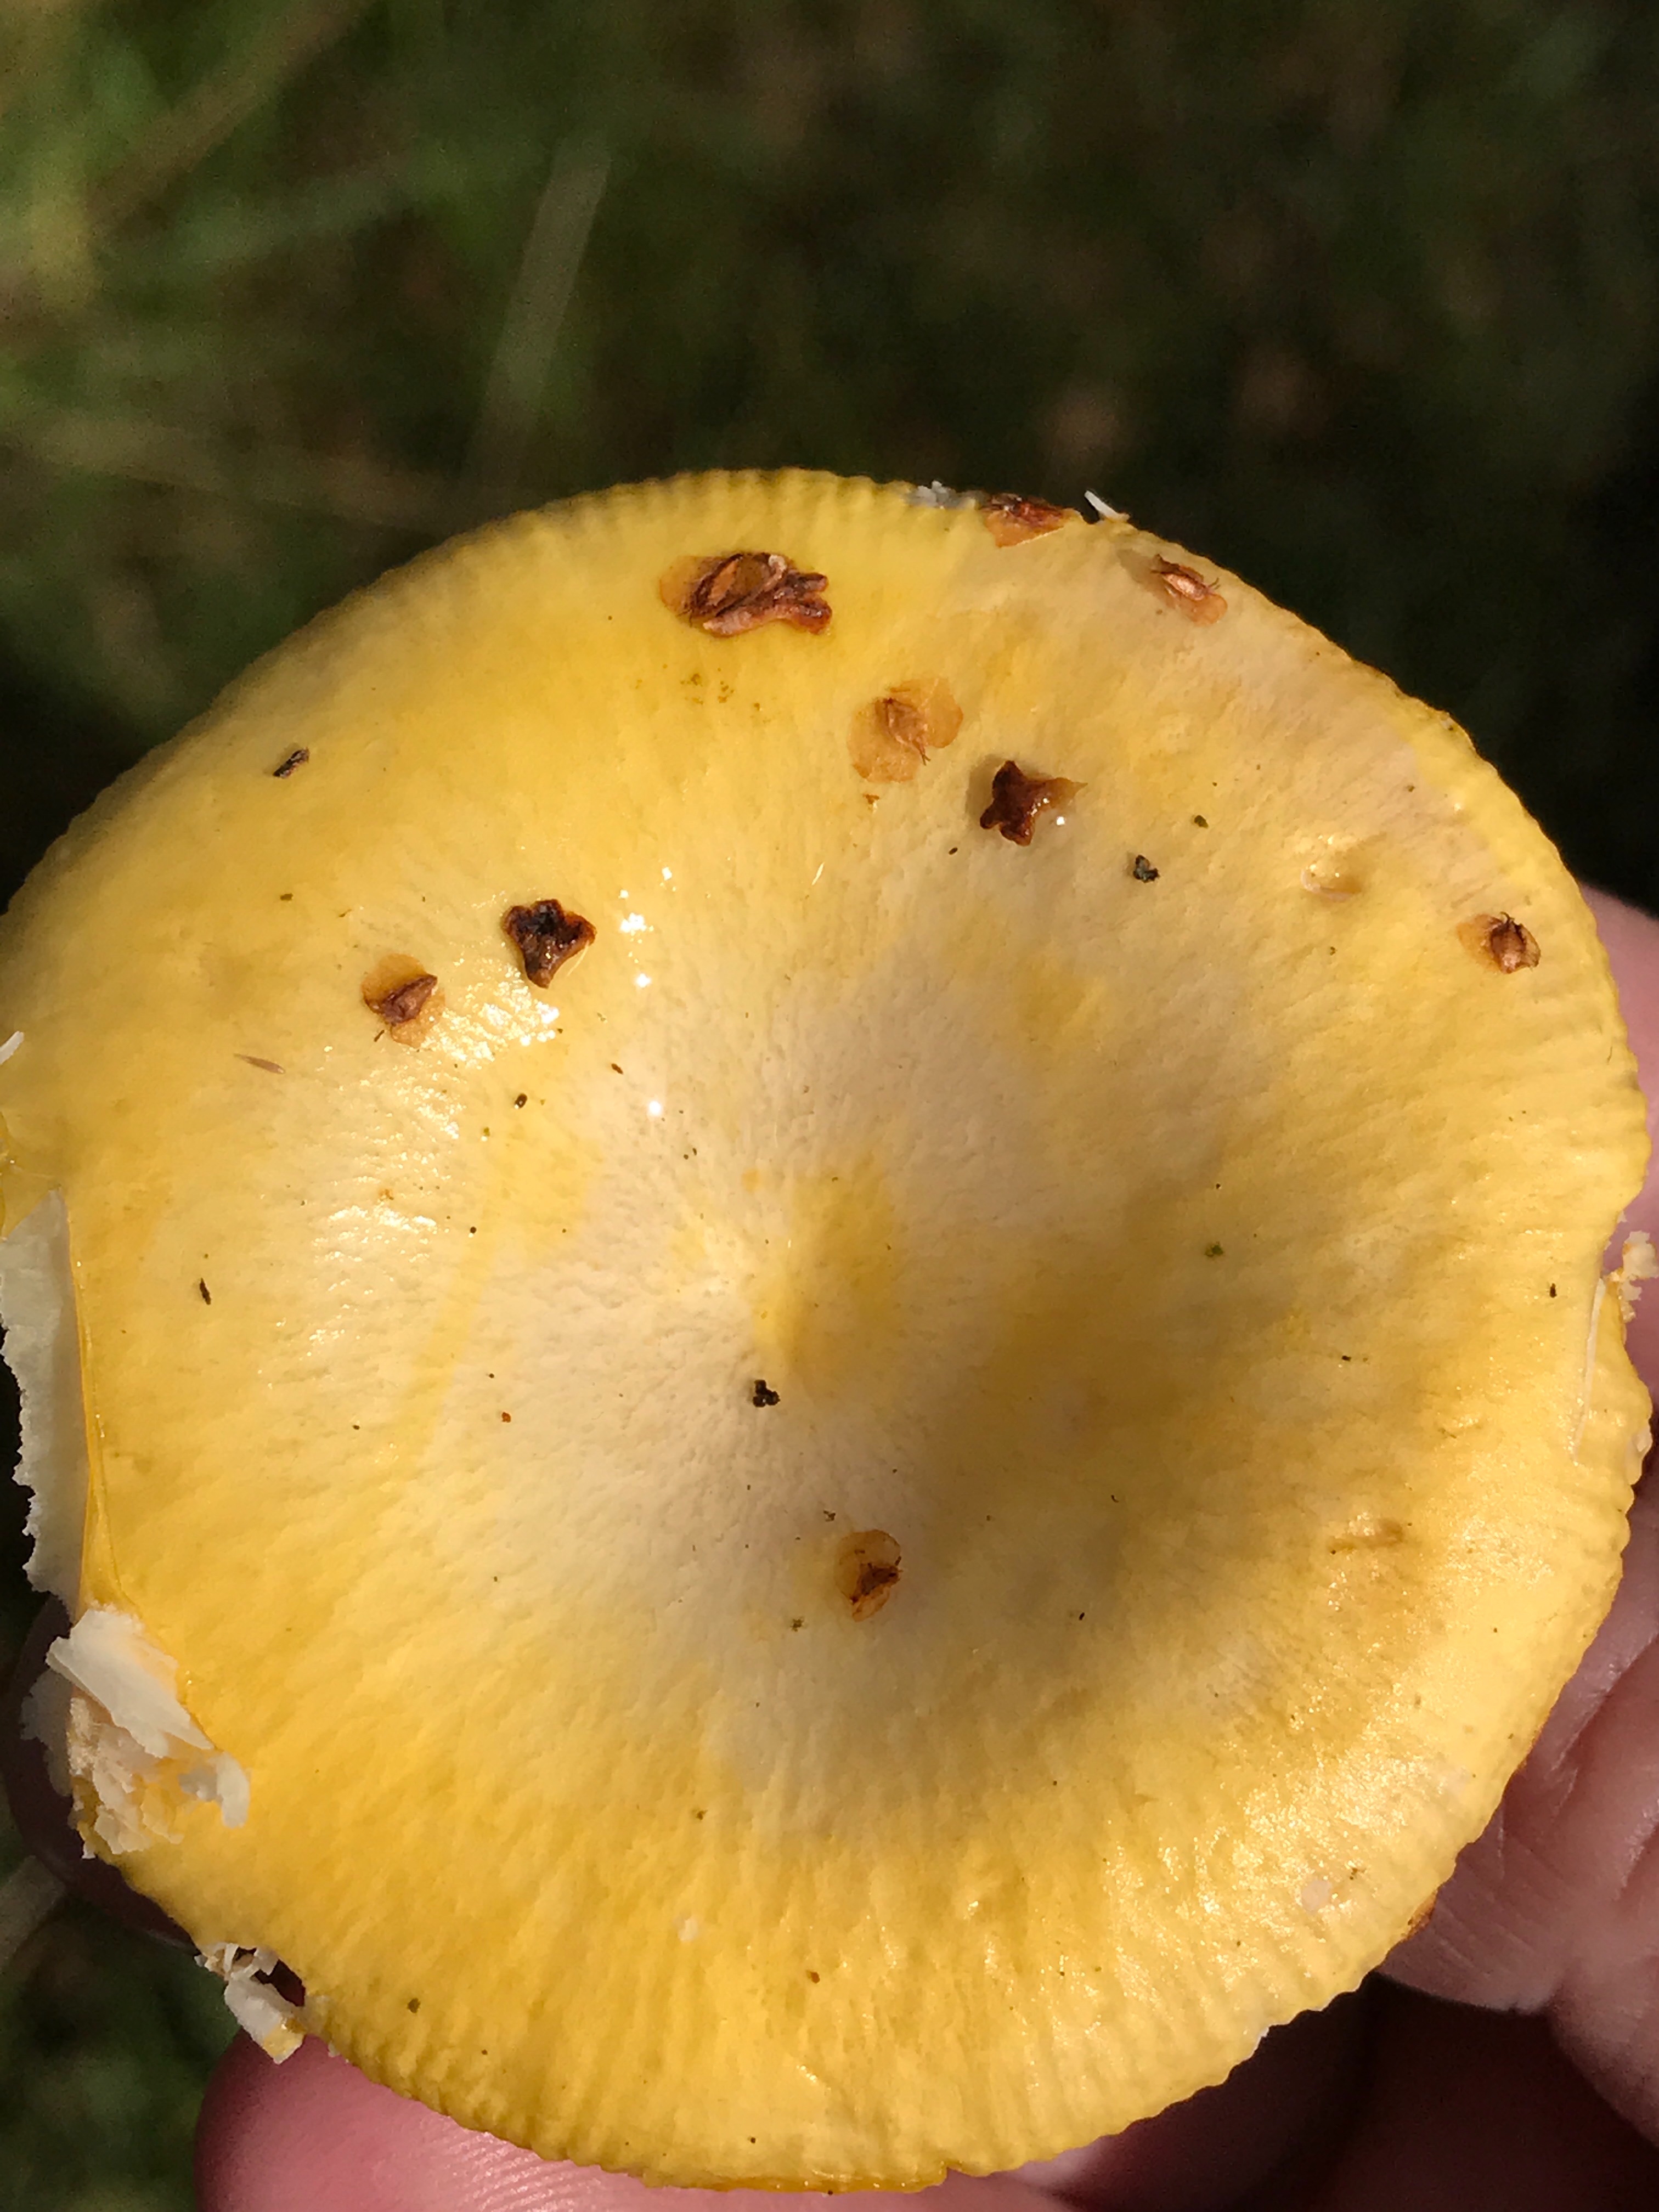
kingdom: Fungi
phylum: Basidiomycota
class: Agaricomycetes
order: Russulales
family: Russulaceae
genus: Russula
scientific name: Russula claroflava
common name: birke-skørhat
